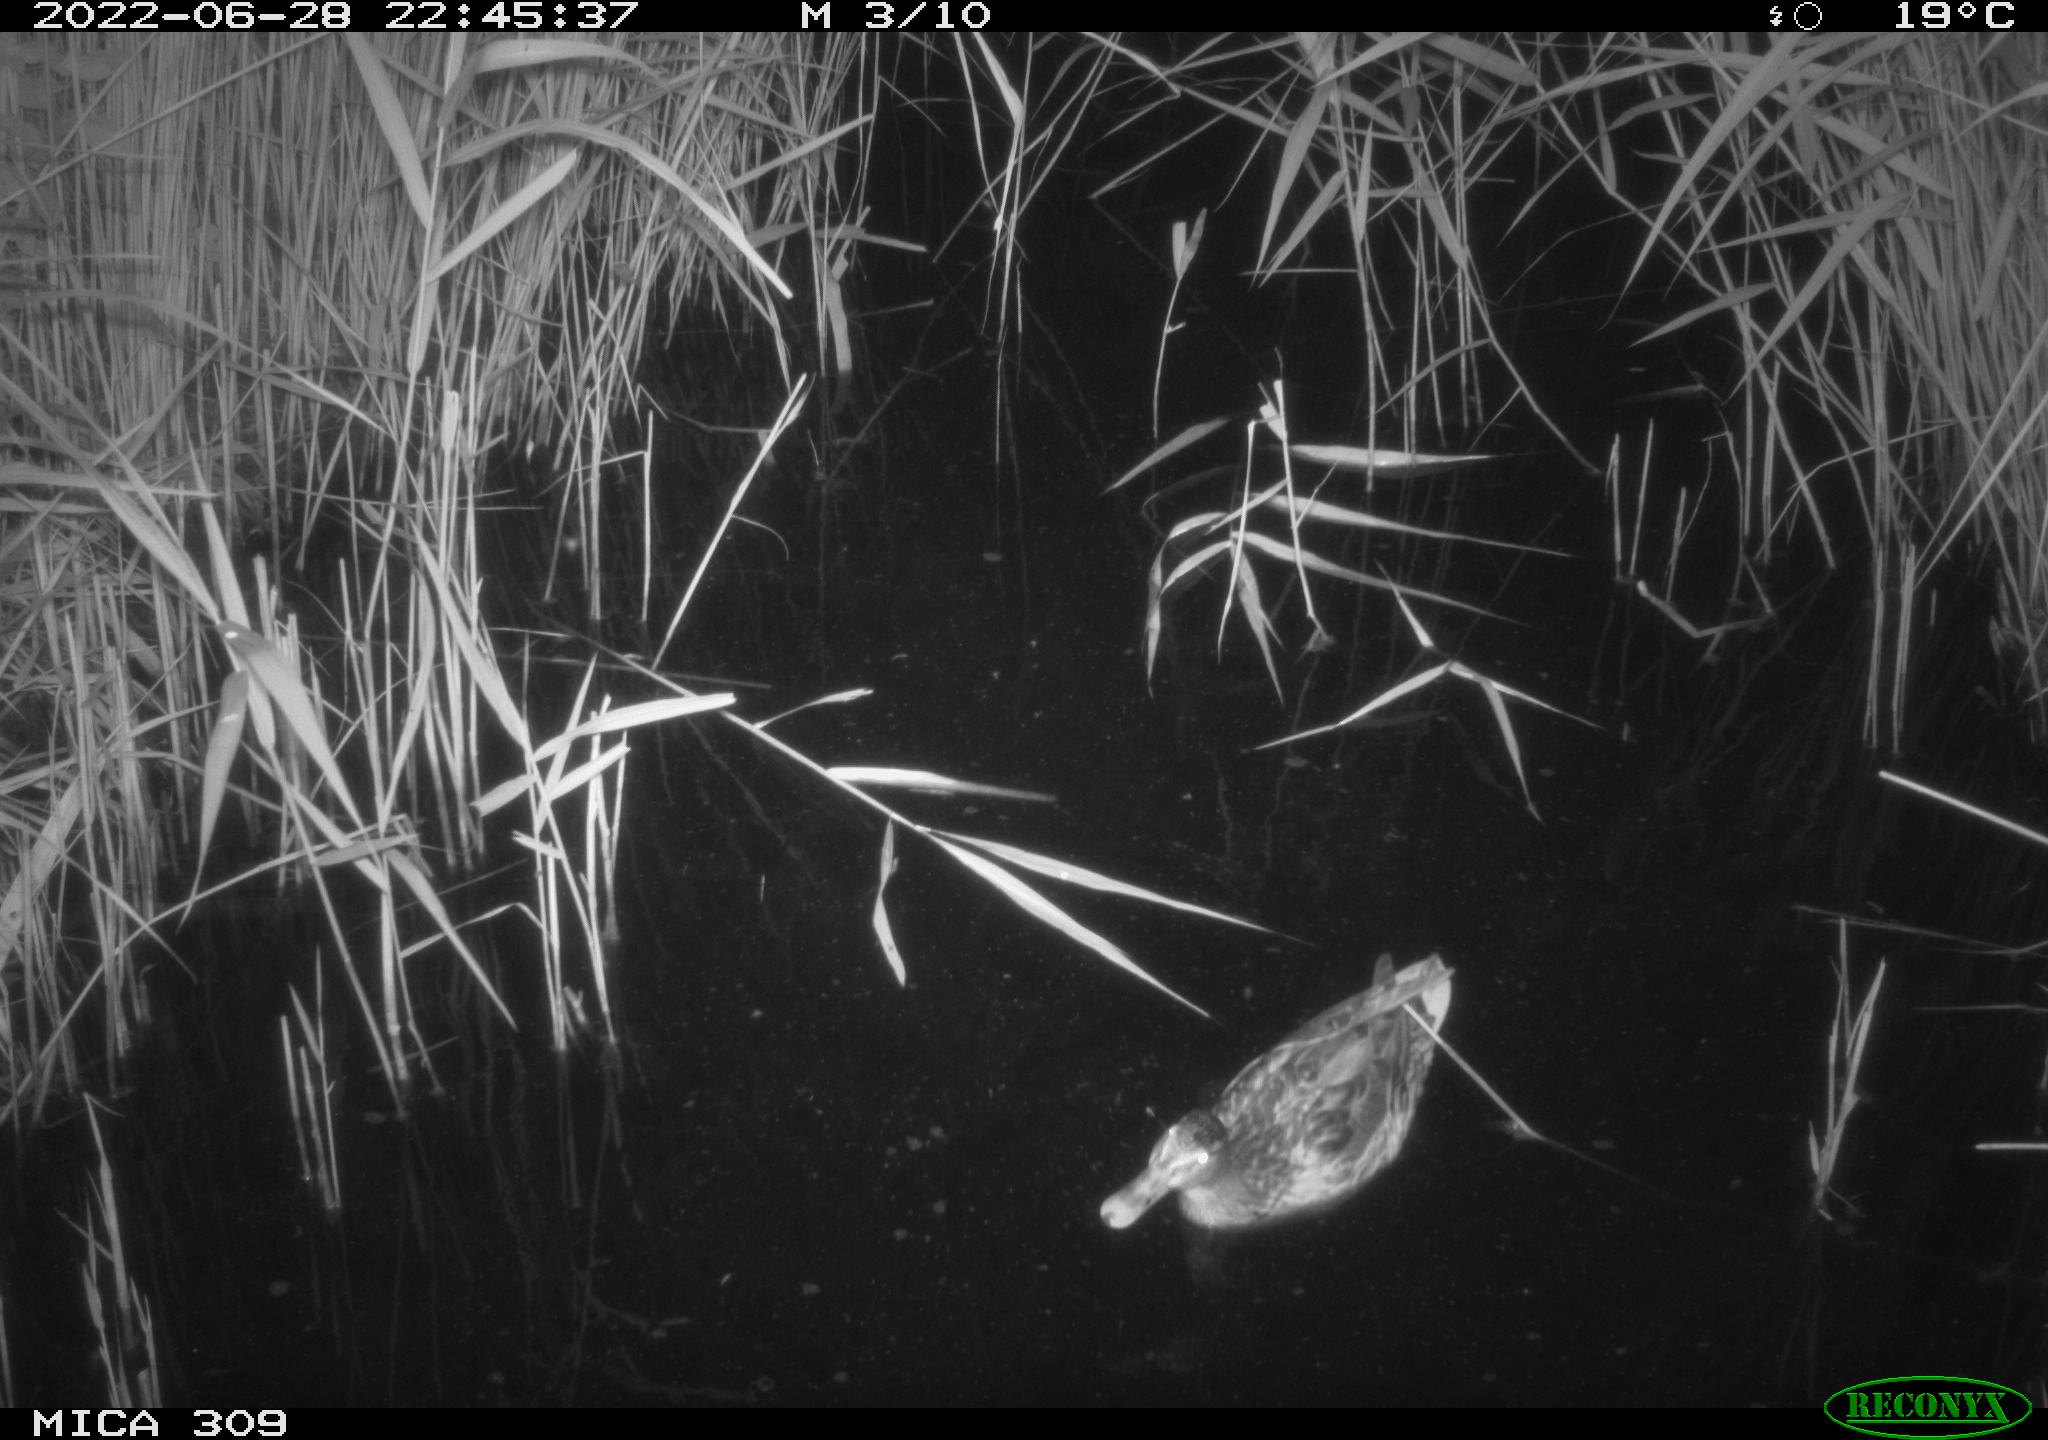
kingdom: Animalia
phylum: Chordata
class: Aves
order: Anseriformes
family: Anatidae
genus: Mareca
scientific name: Mareca strepera
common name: Gadwall
